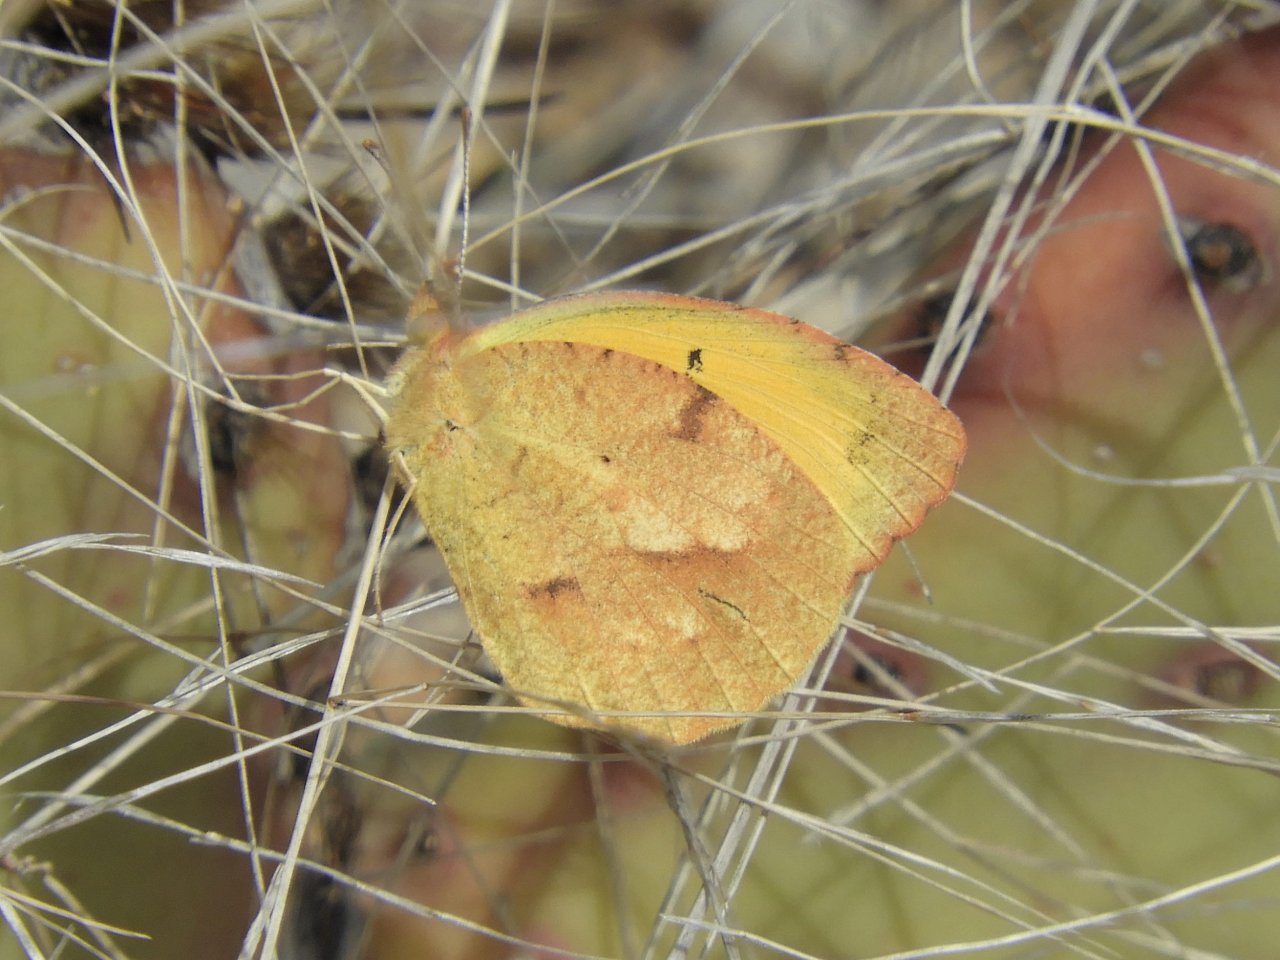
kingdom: Animalia
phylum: Arthropoda
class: Insecta
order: Lepidoptera
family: Pieridae
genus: Abaeis
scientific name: Abaeis nicippe
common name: Sleepy Orange
